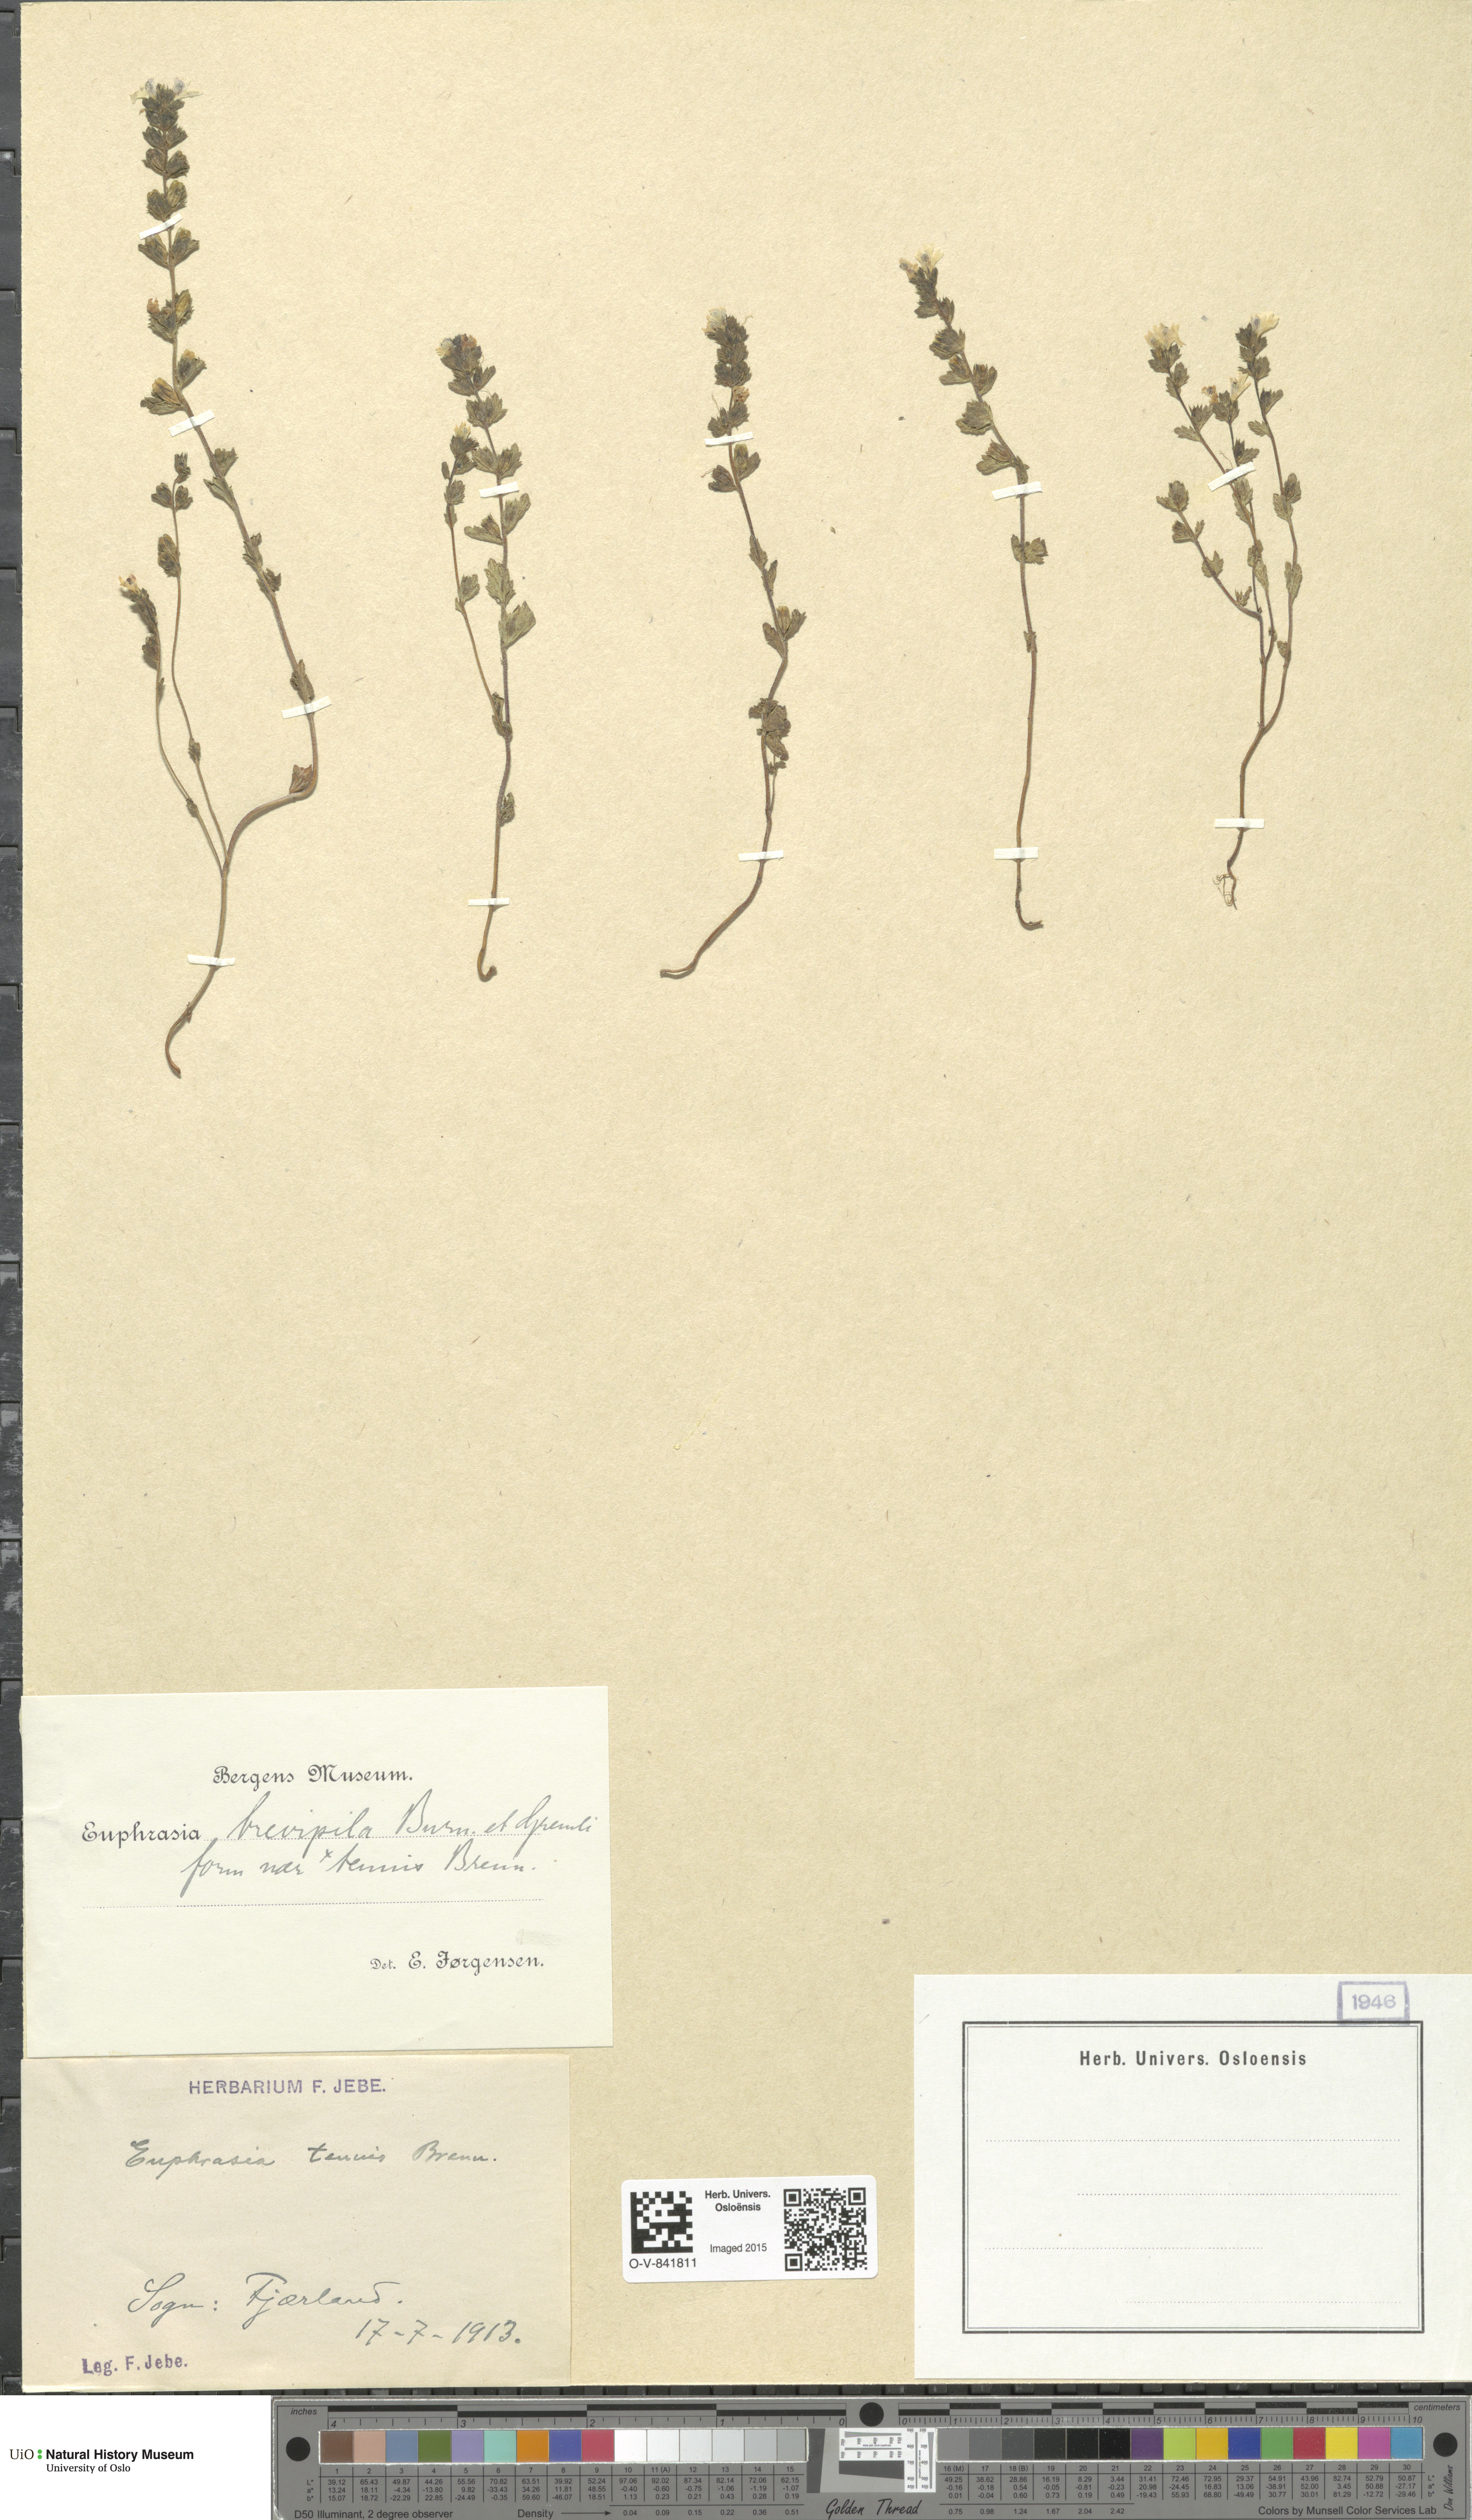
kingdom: Plantae
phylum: Tracheophyta
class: Magnoliopsida
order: Lamiales
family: Orobanchaceae
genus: Euphrasia
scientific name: Euphrasia vernalis
